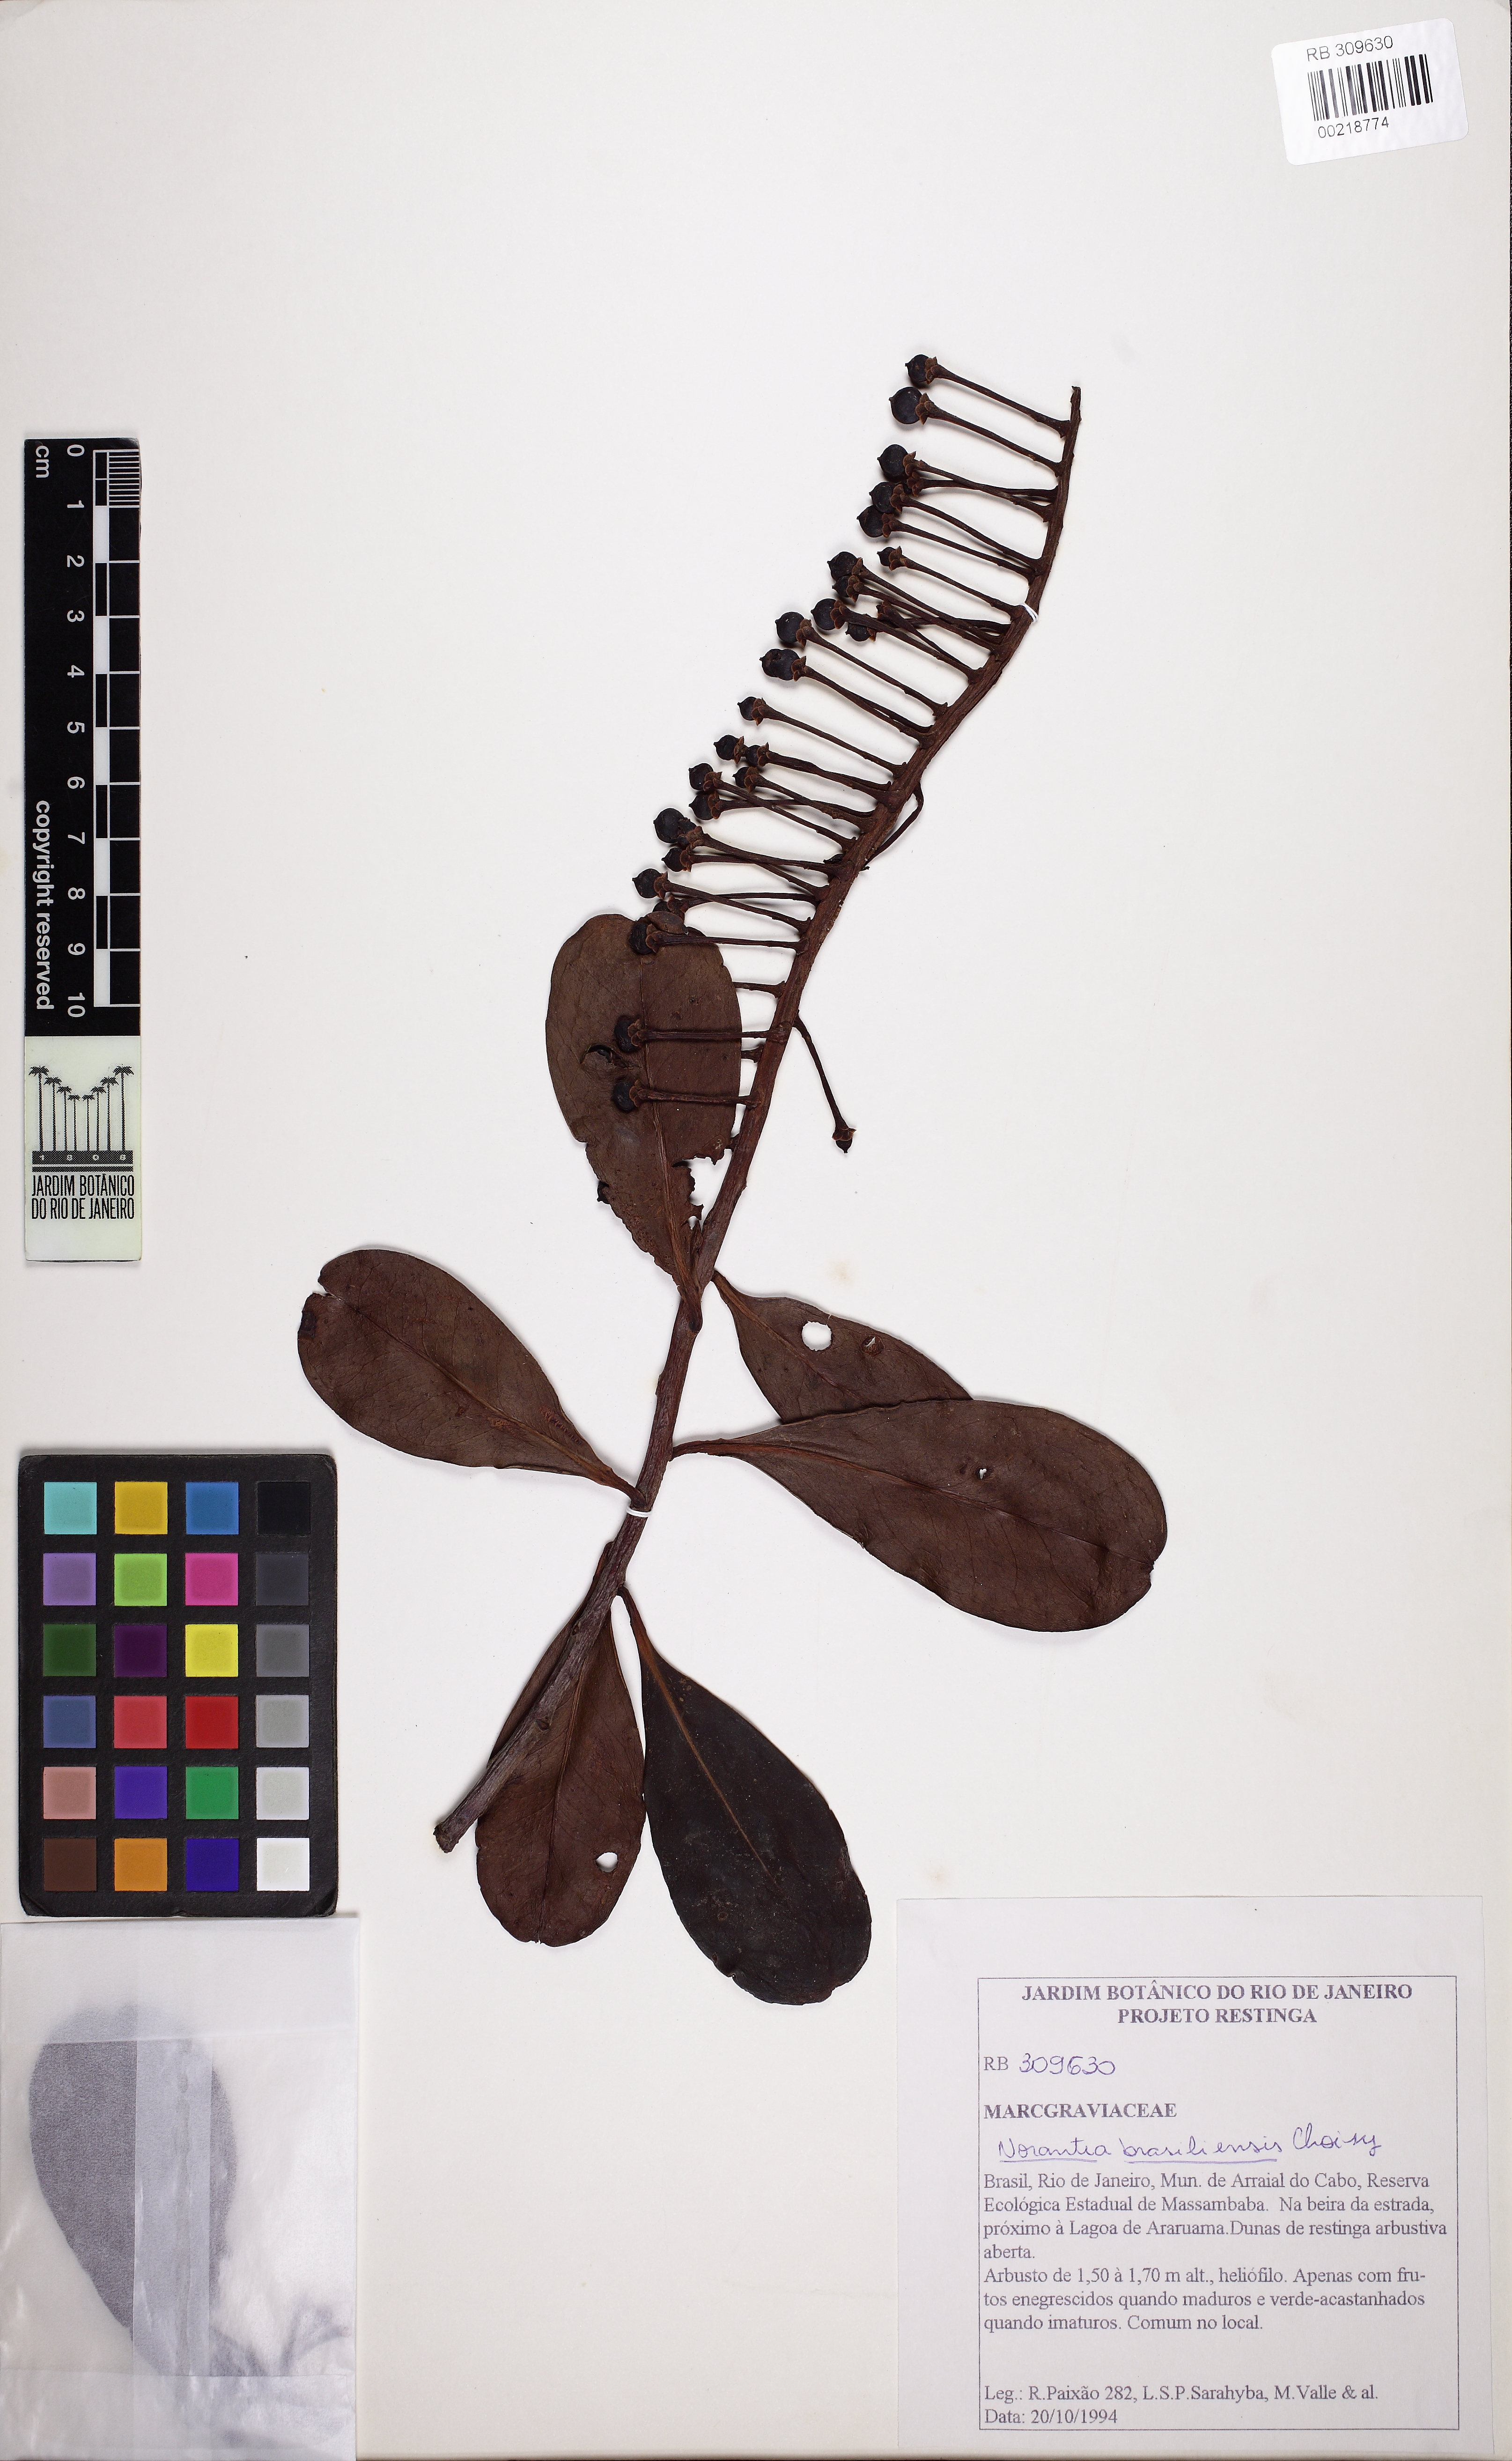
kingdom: Plantae
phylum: Tracheophyta
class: Magnoliopsida
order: Ericales
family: Marcgraviaceae
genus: Schwartzia
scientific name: Schwartzia brasiliensis
